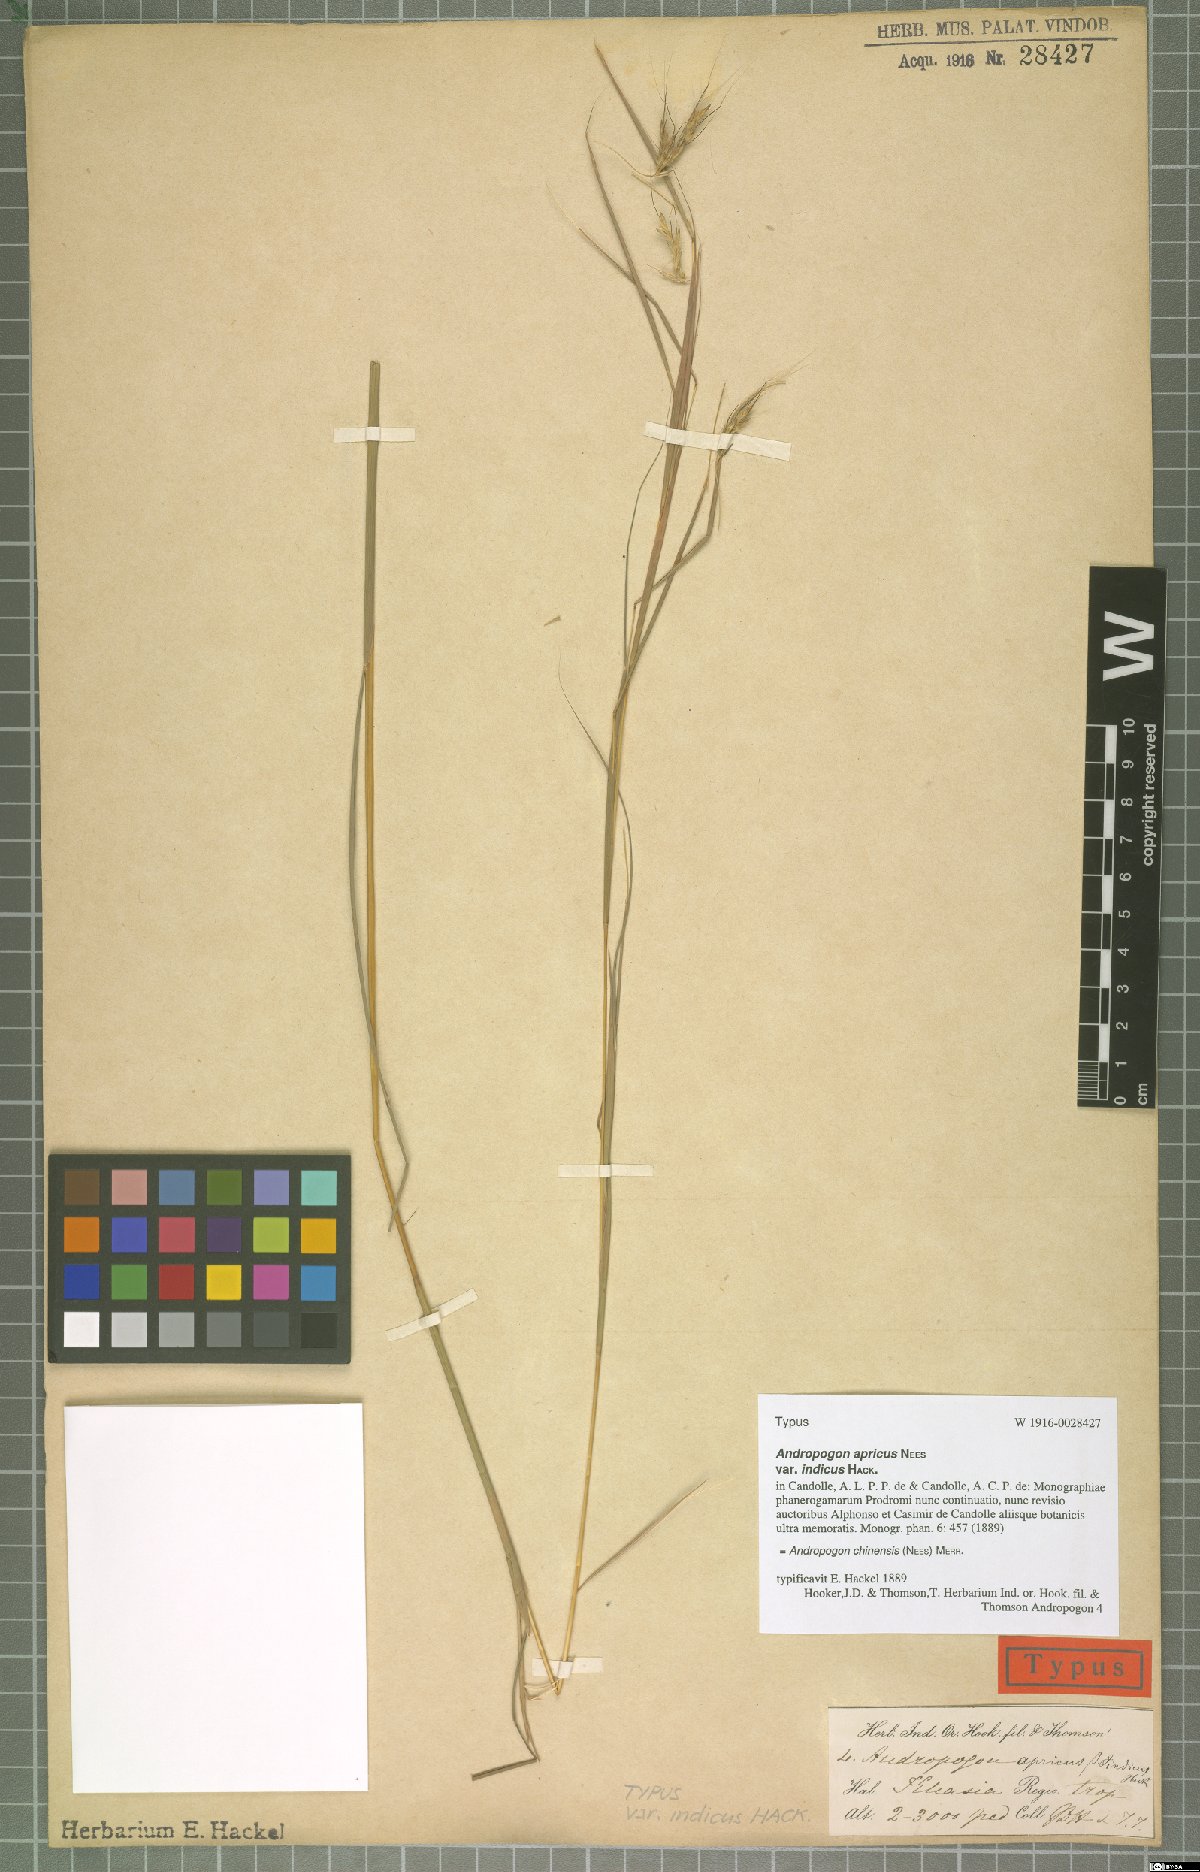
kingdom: Plantae
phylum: Tracheophyta
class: Liliopsida
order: Poales
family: Poaceae
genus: Andropogon
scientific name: Andropogon chinensis
